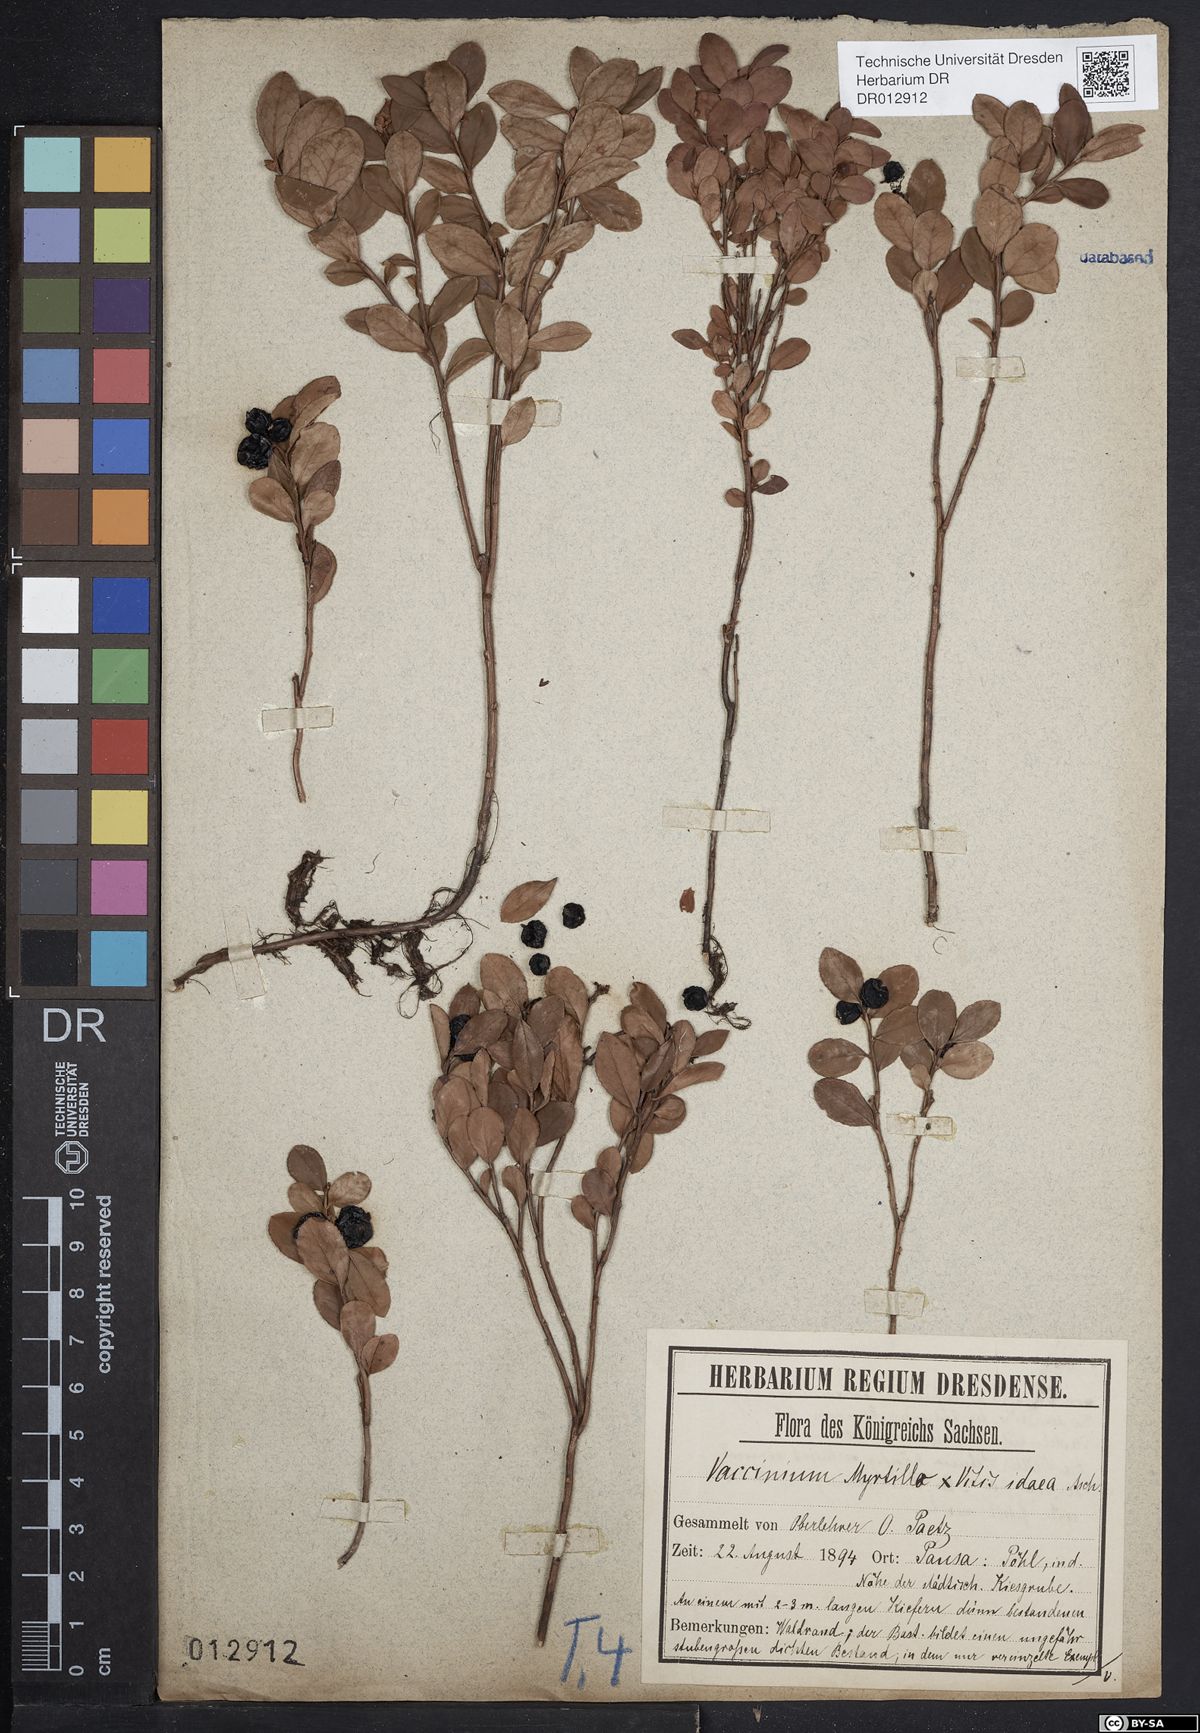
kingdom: Plantae
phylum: Tracheophyta
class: Magnoliopsida
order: Ericales
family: Ericaceae
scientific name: Ericaceae
